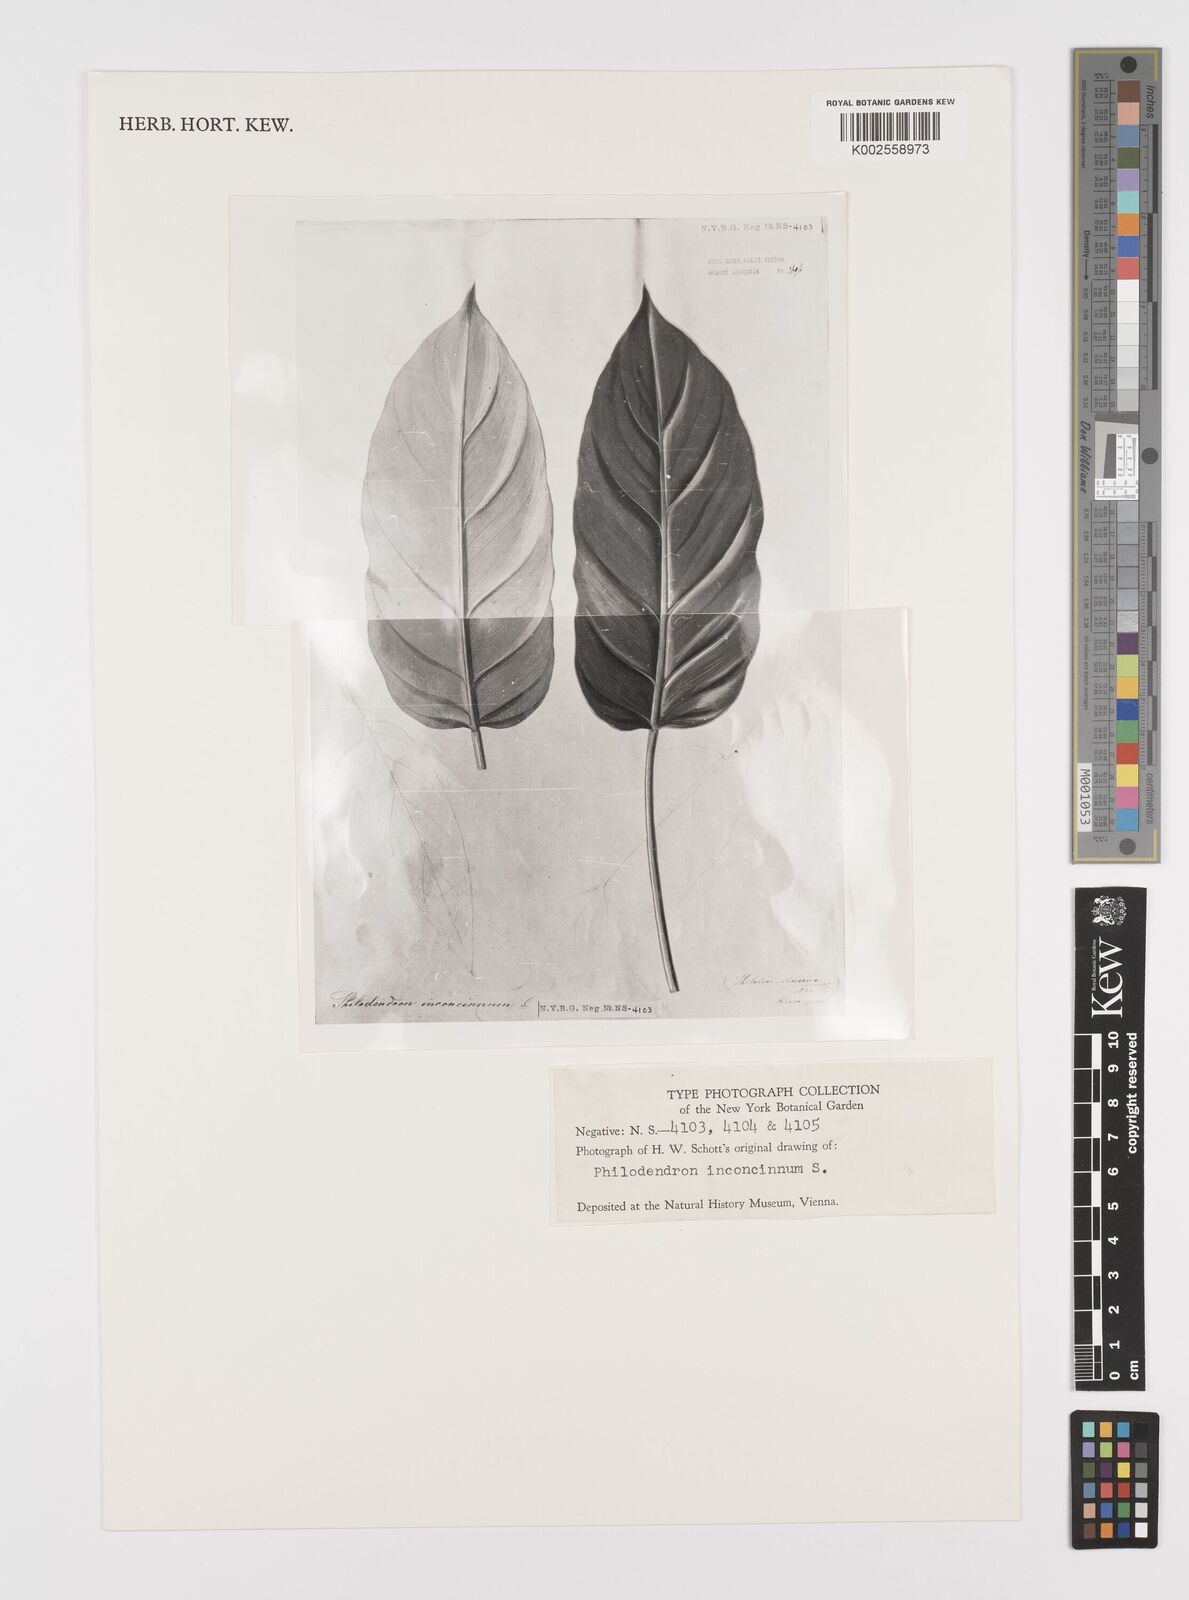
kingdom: Plantae
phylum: Tracheophyta
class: Liliopsida
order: Alismatales
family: Araceae
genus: Philodendron
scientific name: Philodendron inconcinnum
